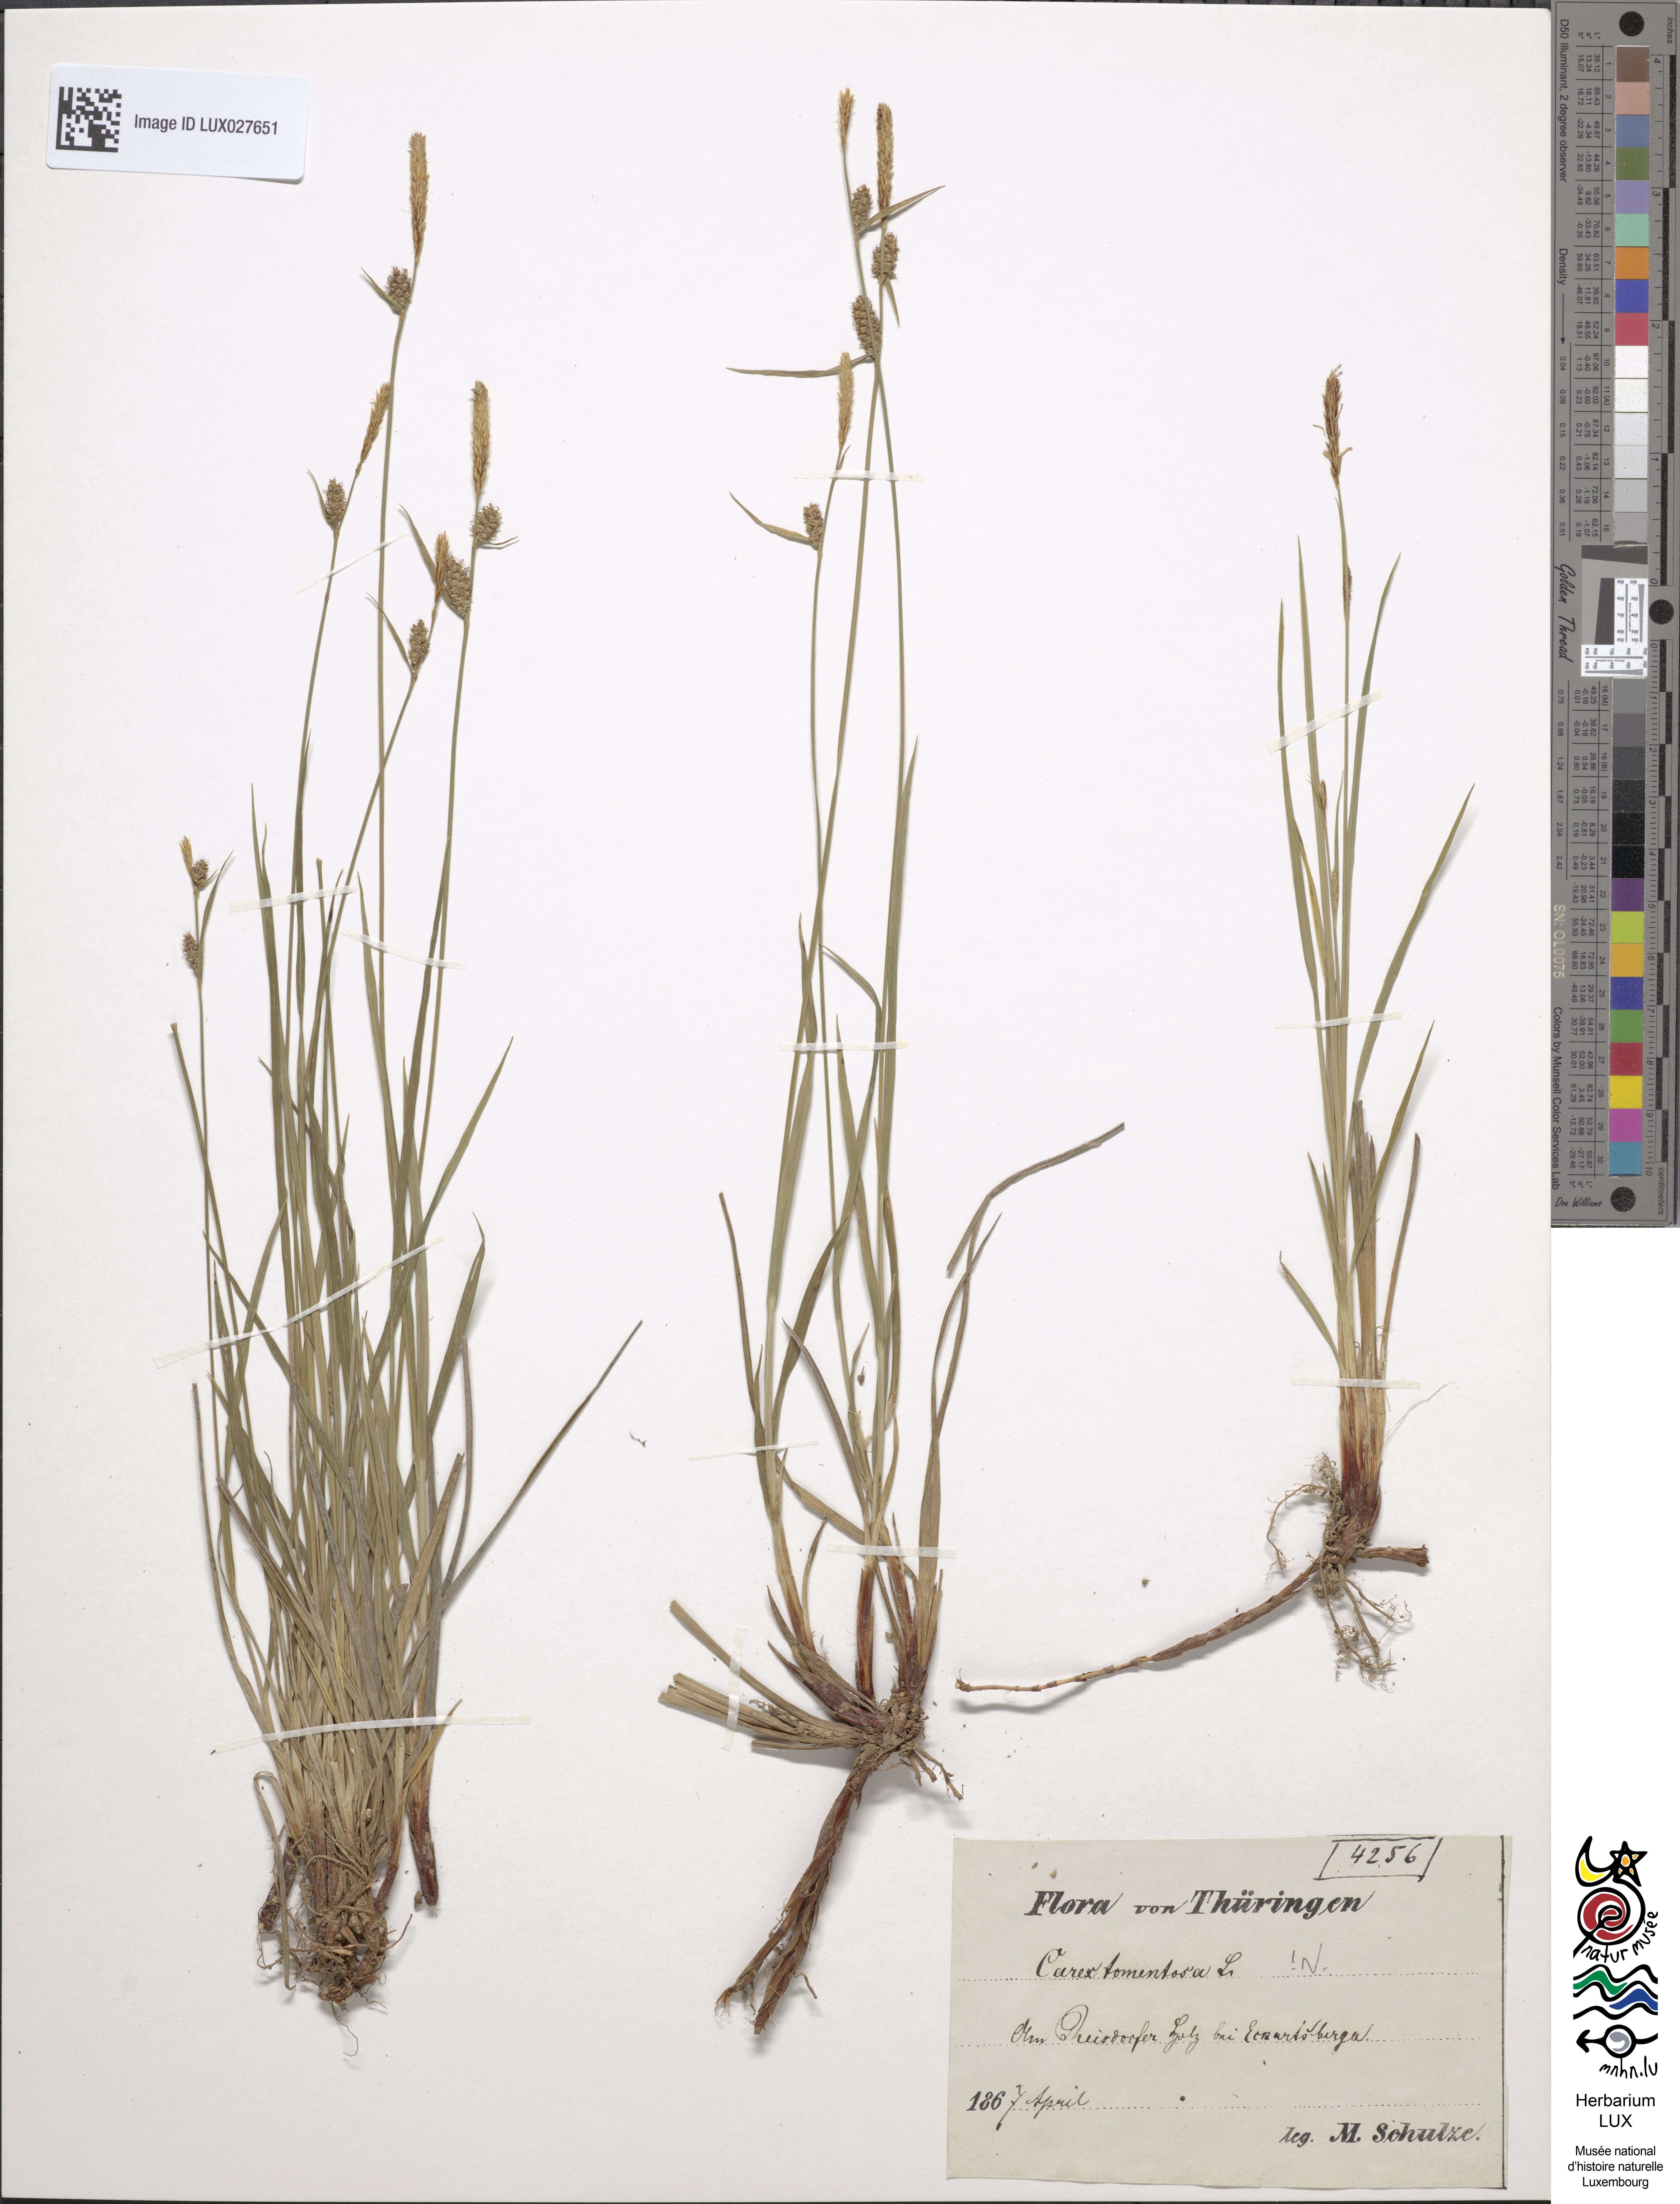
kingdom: Plantae
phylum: Tracheophyta
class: Liliopsida
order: Poales
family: Cyperaceae
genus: Carex
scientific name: Carex tomentosa
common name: Downy-fruited sedge
